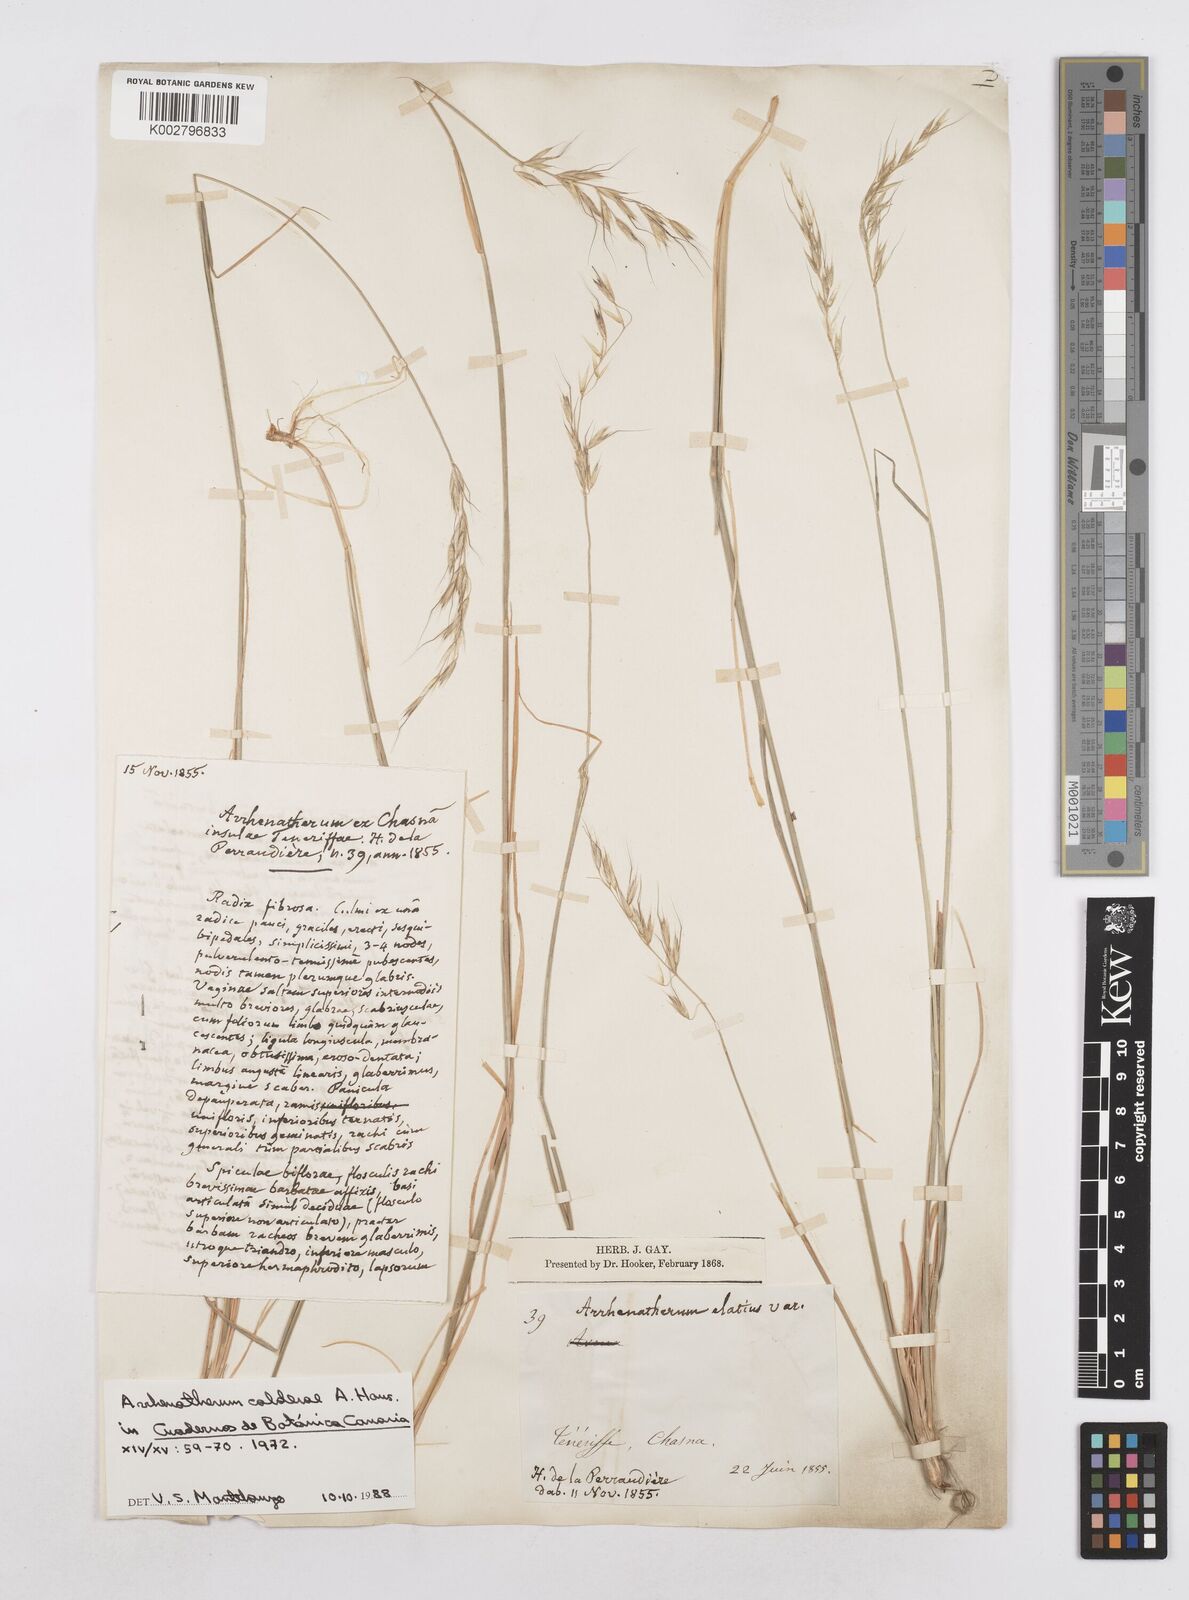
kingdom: Plantae
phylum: Tracheophyta
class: Liliopsida
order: Poales
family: Poaceae
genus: Arrhenatherum
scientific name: Arrhenatherum calderae
